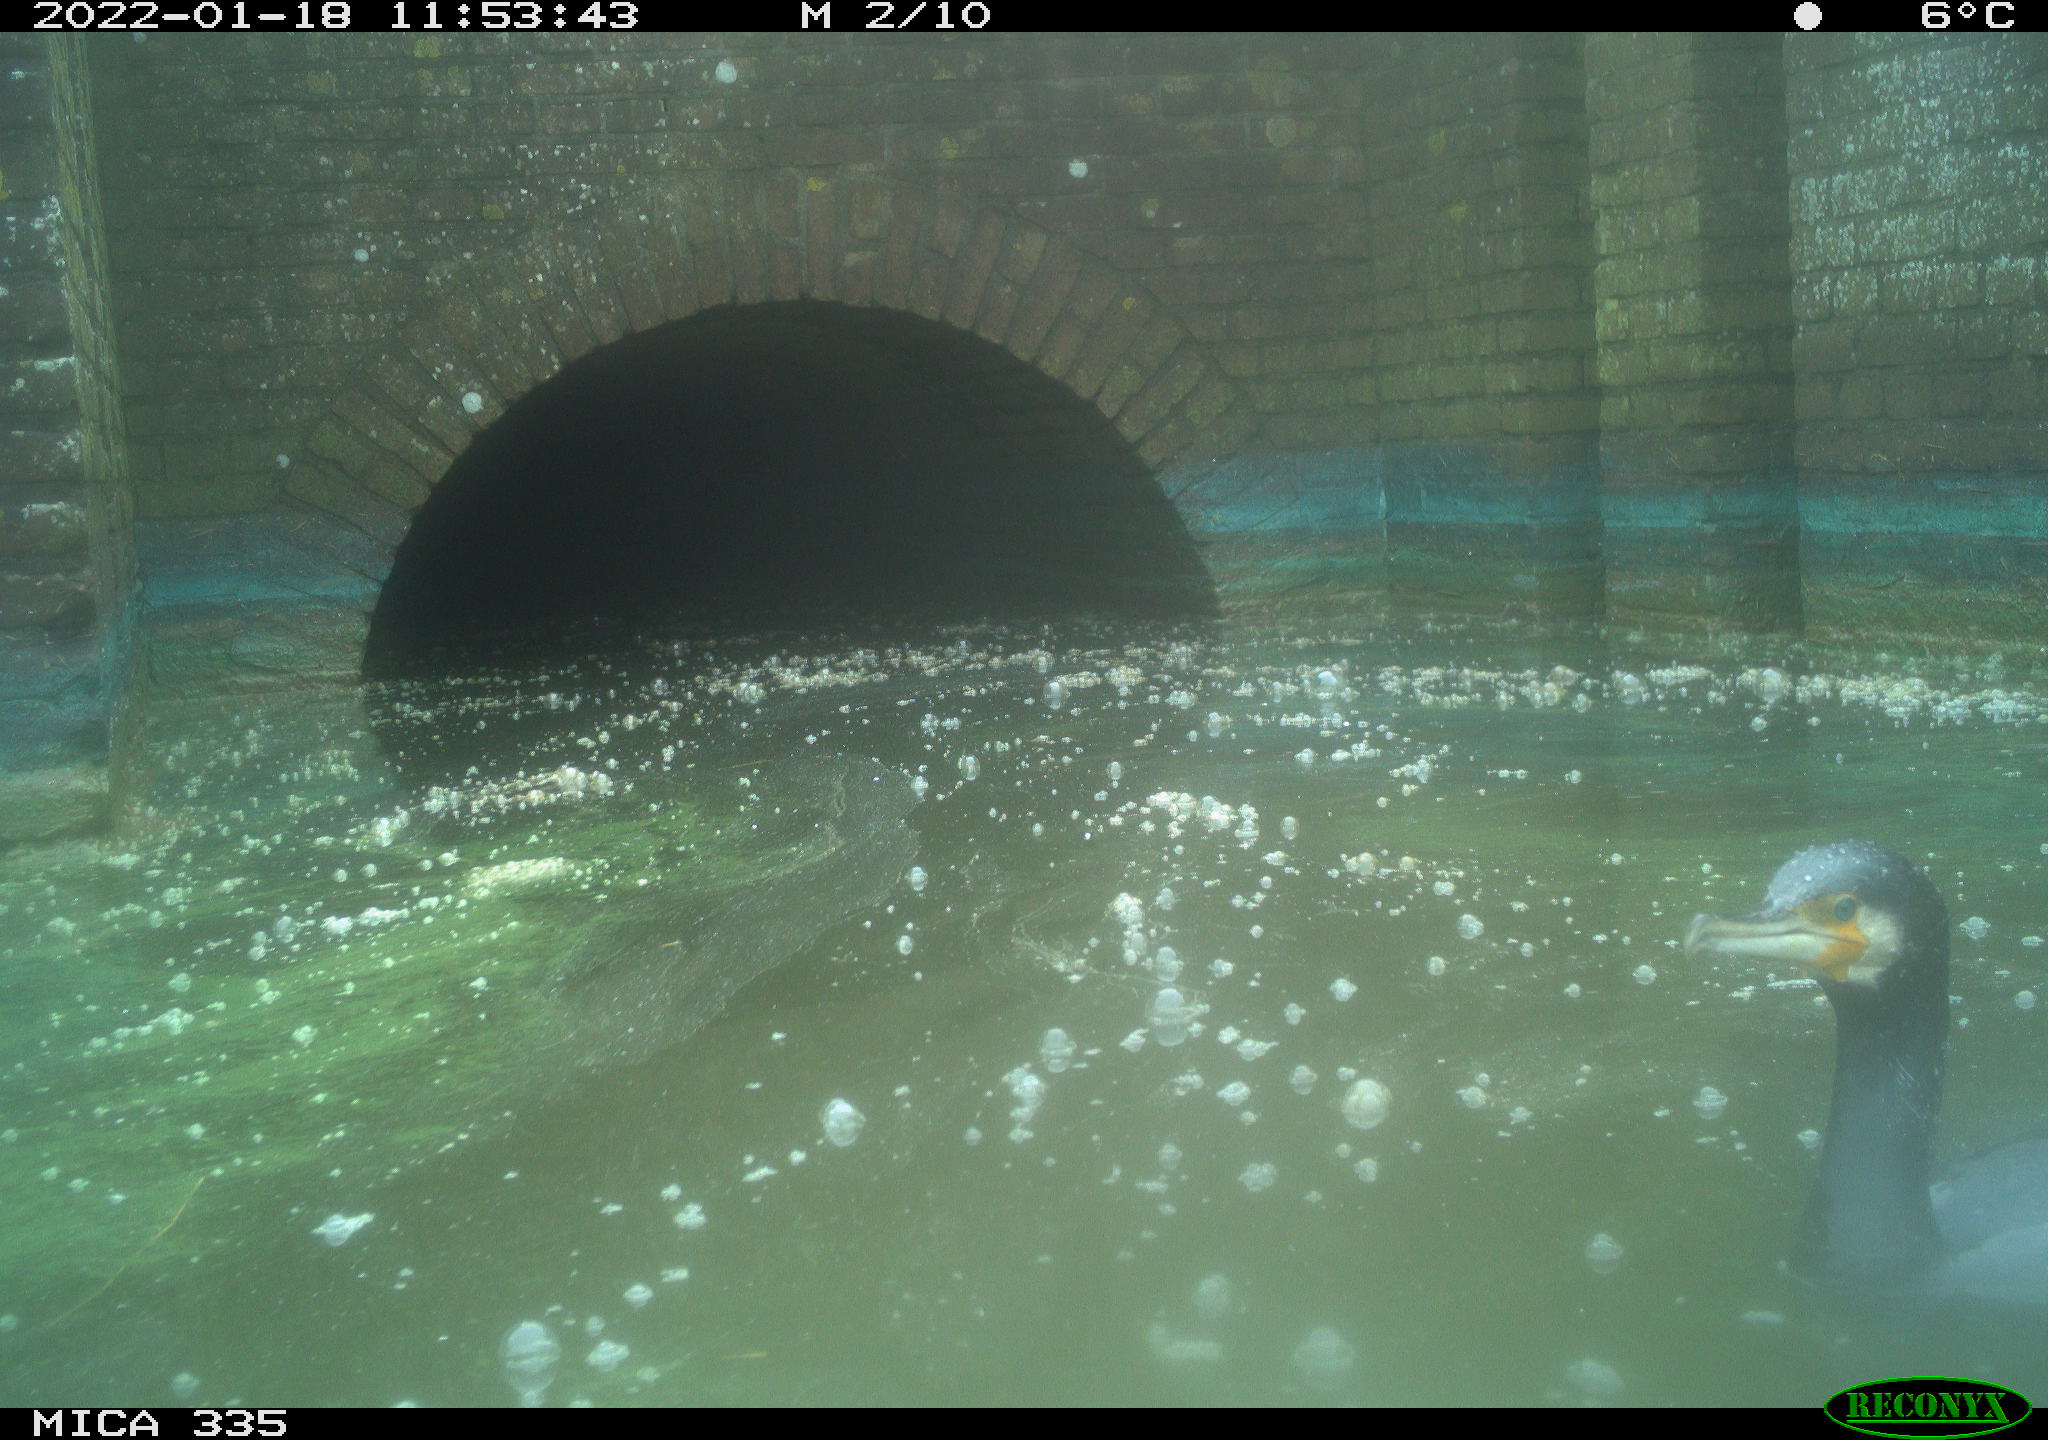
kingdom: Animalia
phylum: Chordata
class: Aves
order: Suliformes
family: Phalacrocoracidae
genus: Phalacrocorax
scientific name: Phalacrocorax carbo
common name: Great cormorant
